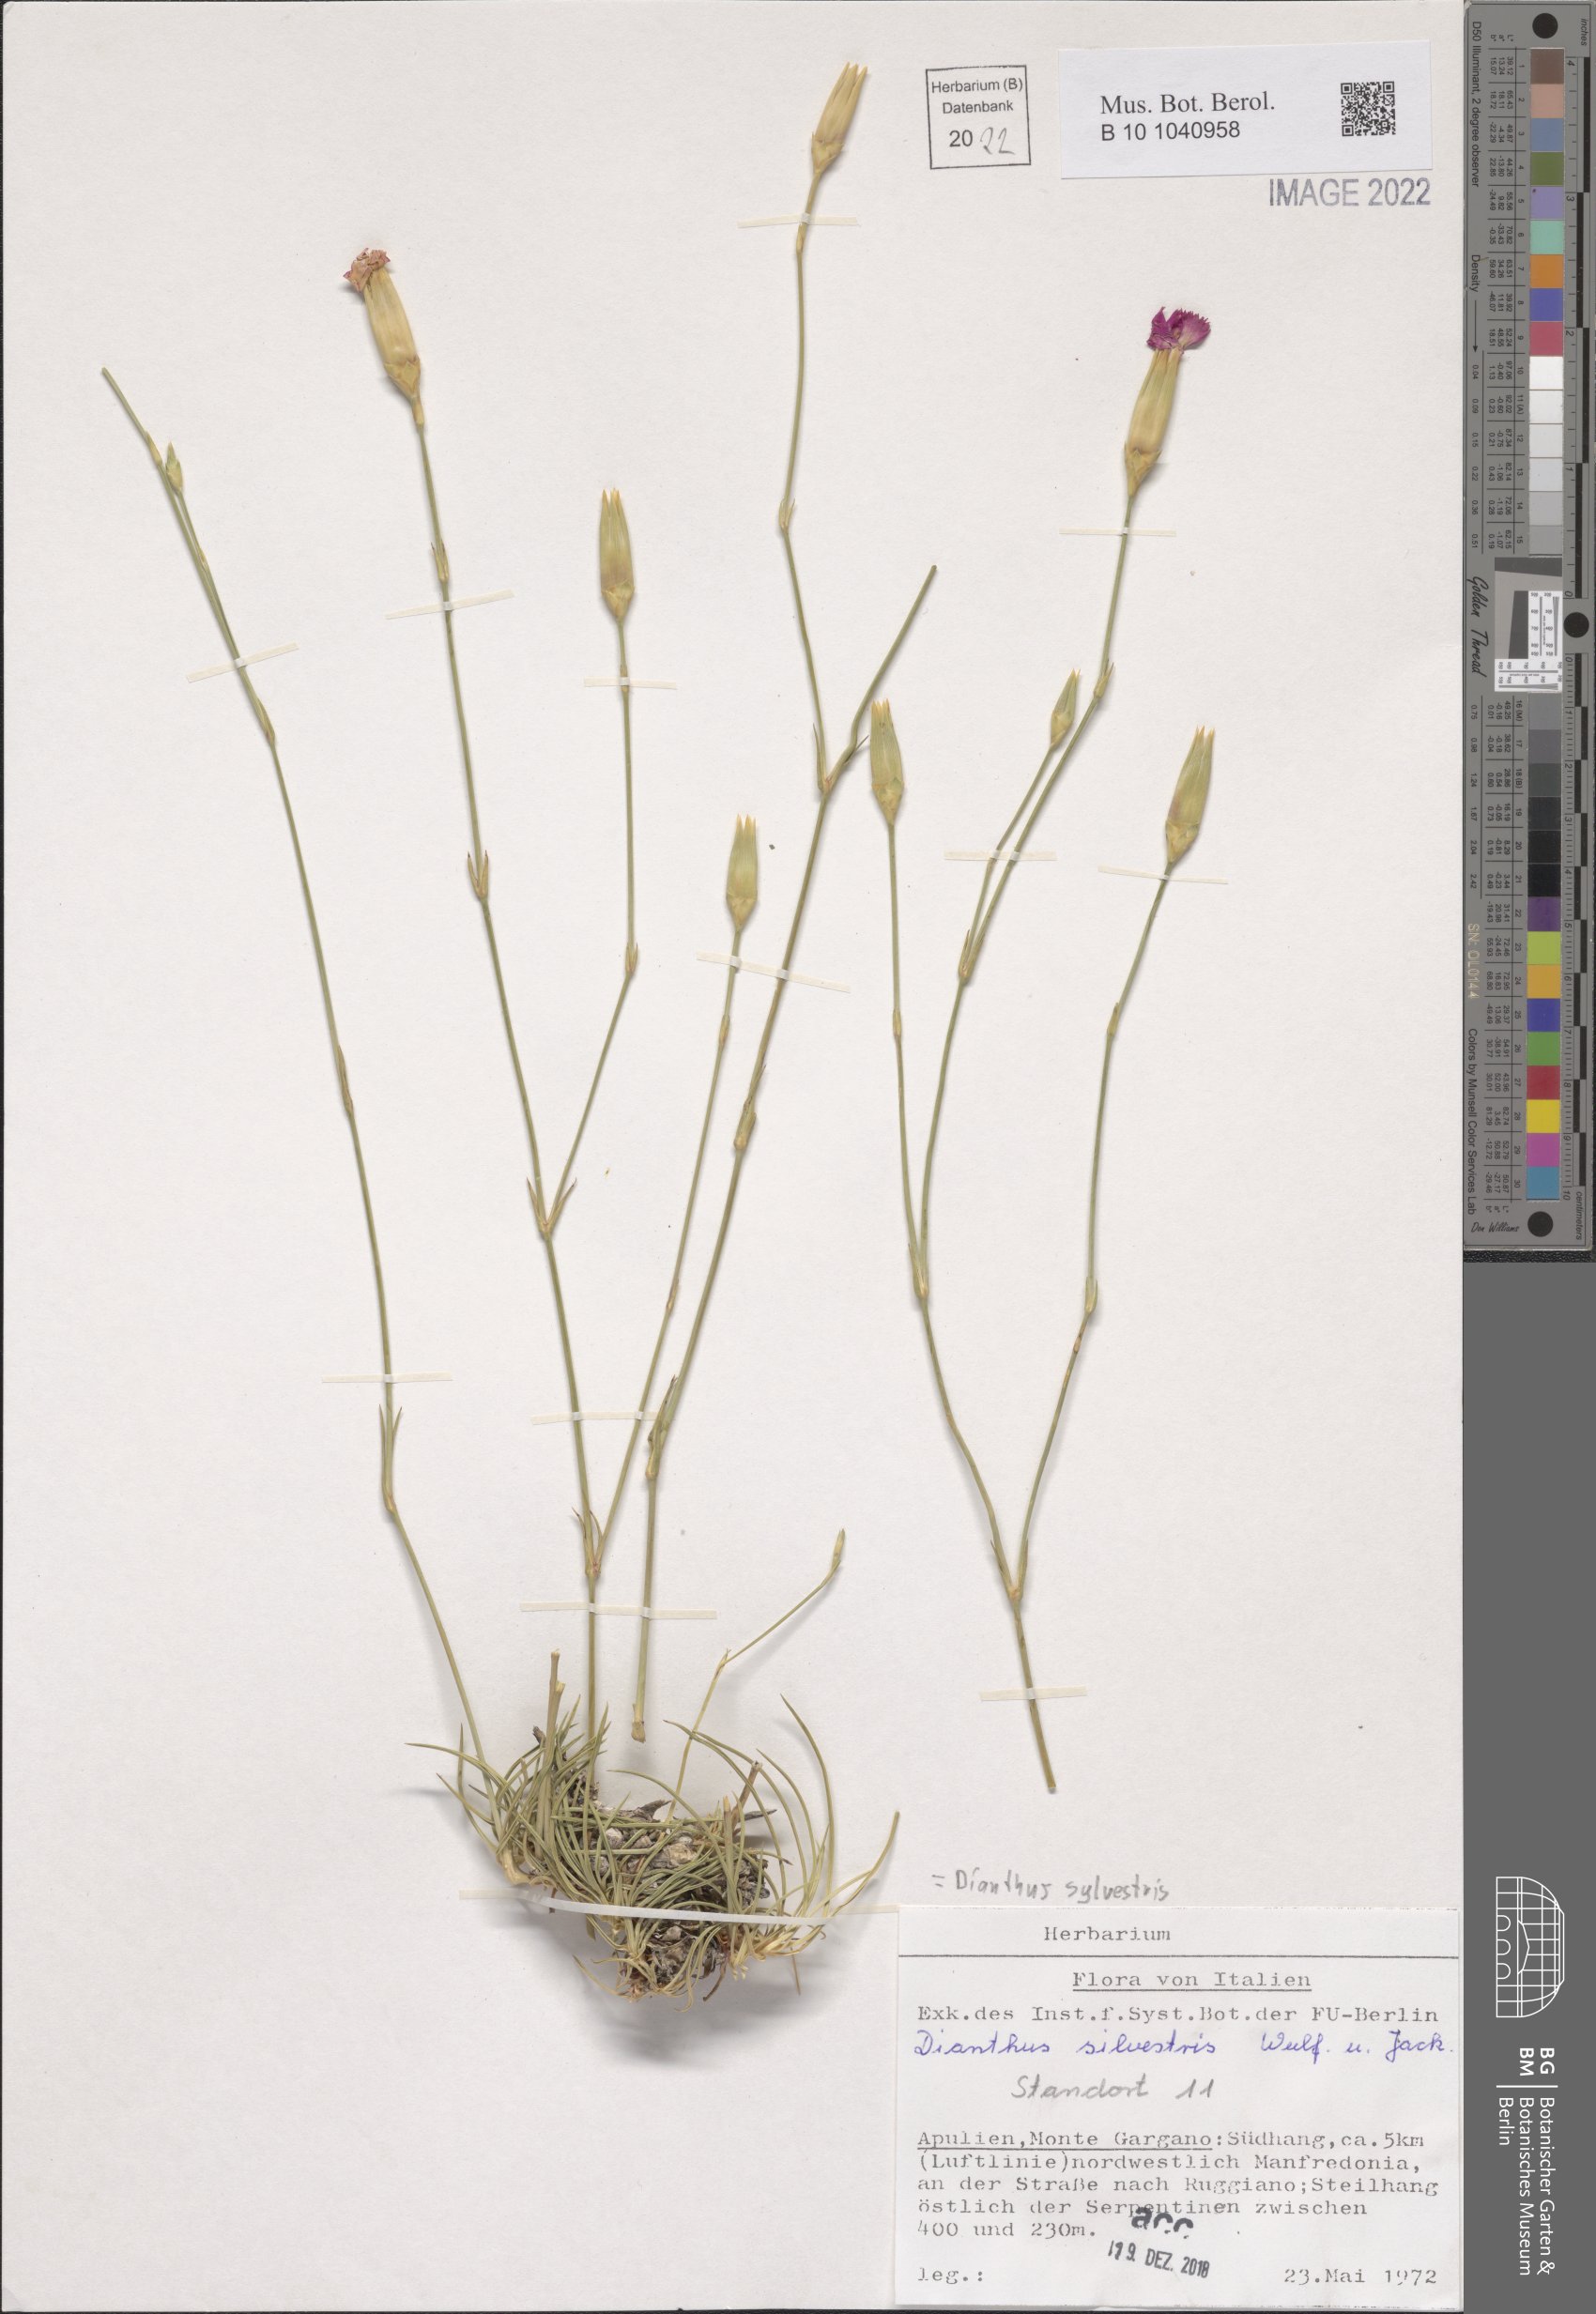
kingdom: Plantae
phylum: Tracheophyta
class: Magnoliopsida
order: Caryophyllales
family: Caryophyllaceae
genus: Dianthus
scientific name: Dianthus sylvestris
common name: Wood pink
